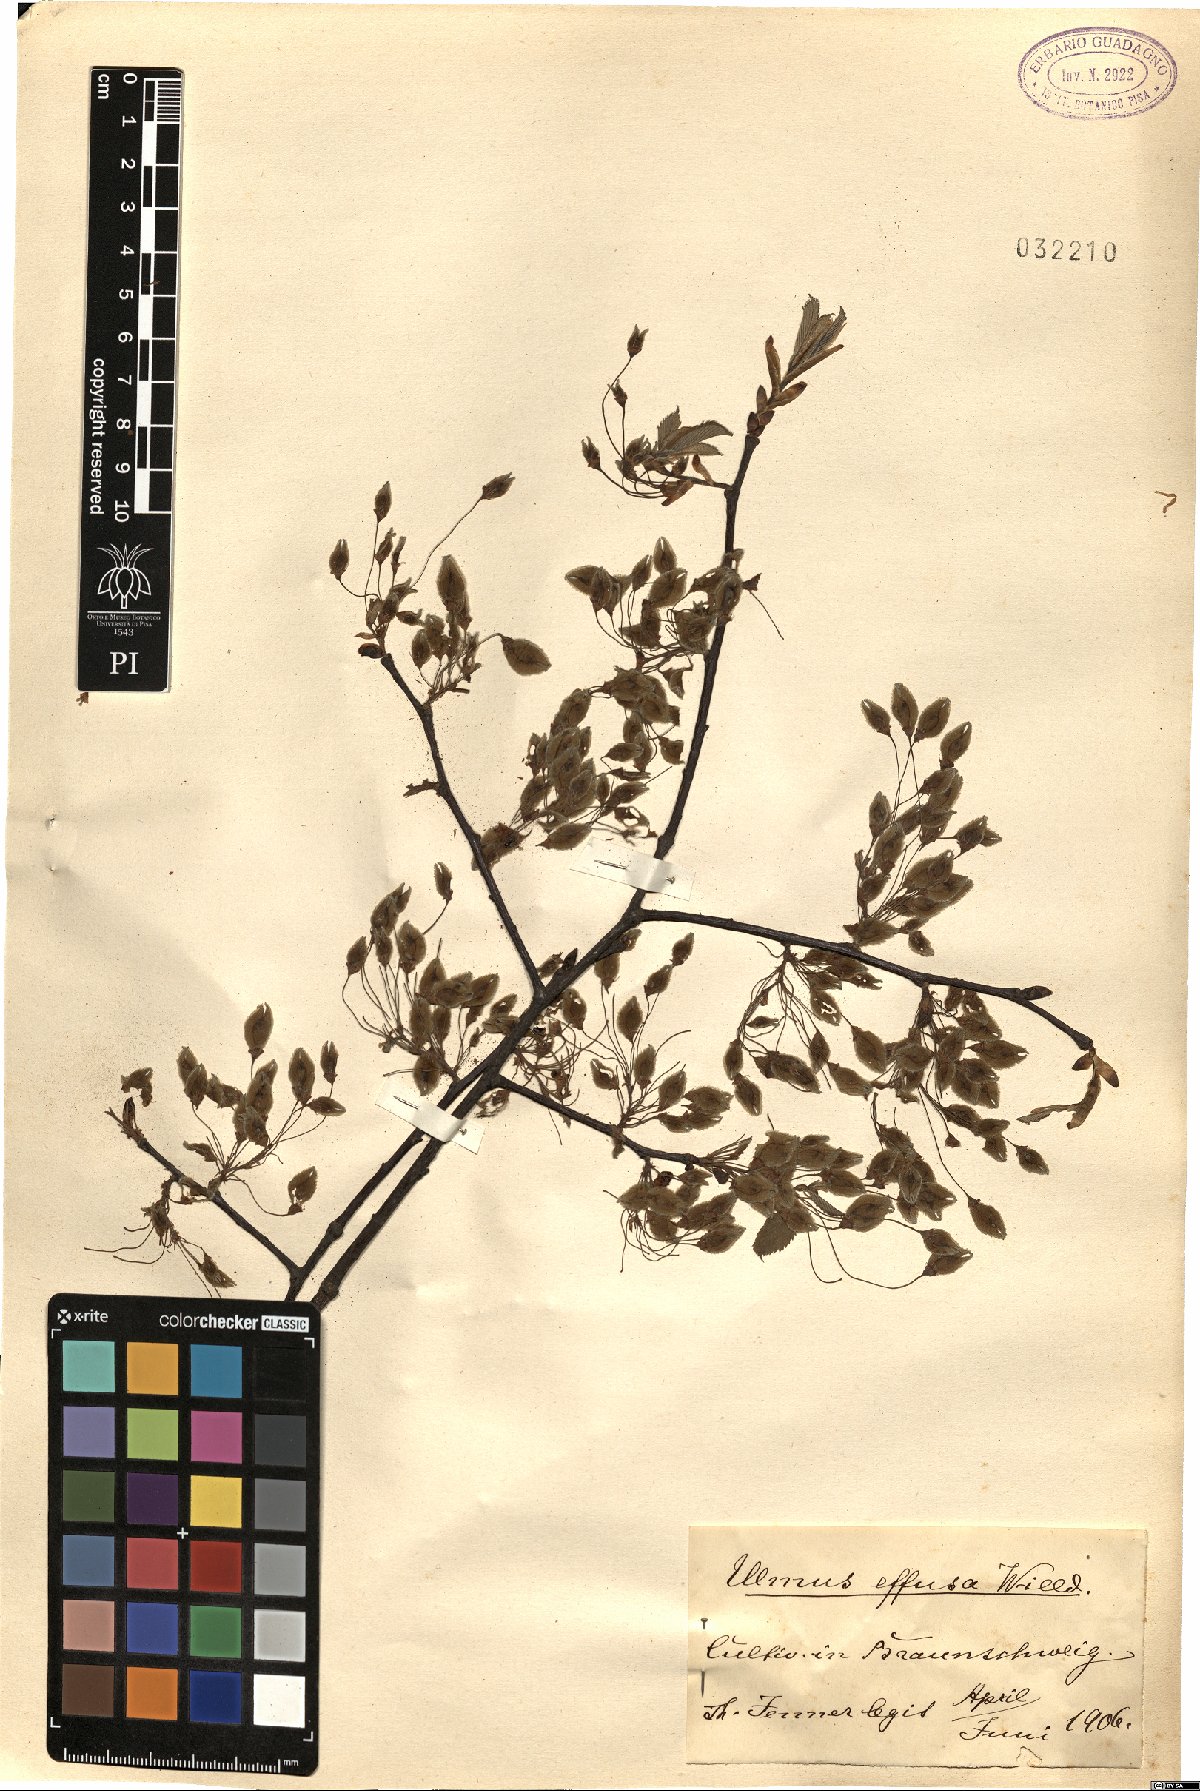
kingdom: Plantae
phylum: Tracheophyta
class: Magnoliopsida
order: Rosales
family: Ulmaceae
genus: Ulmus
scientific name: Ulmus laevis
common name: European white-elm
